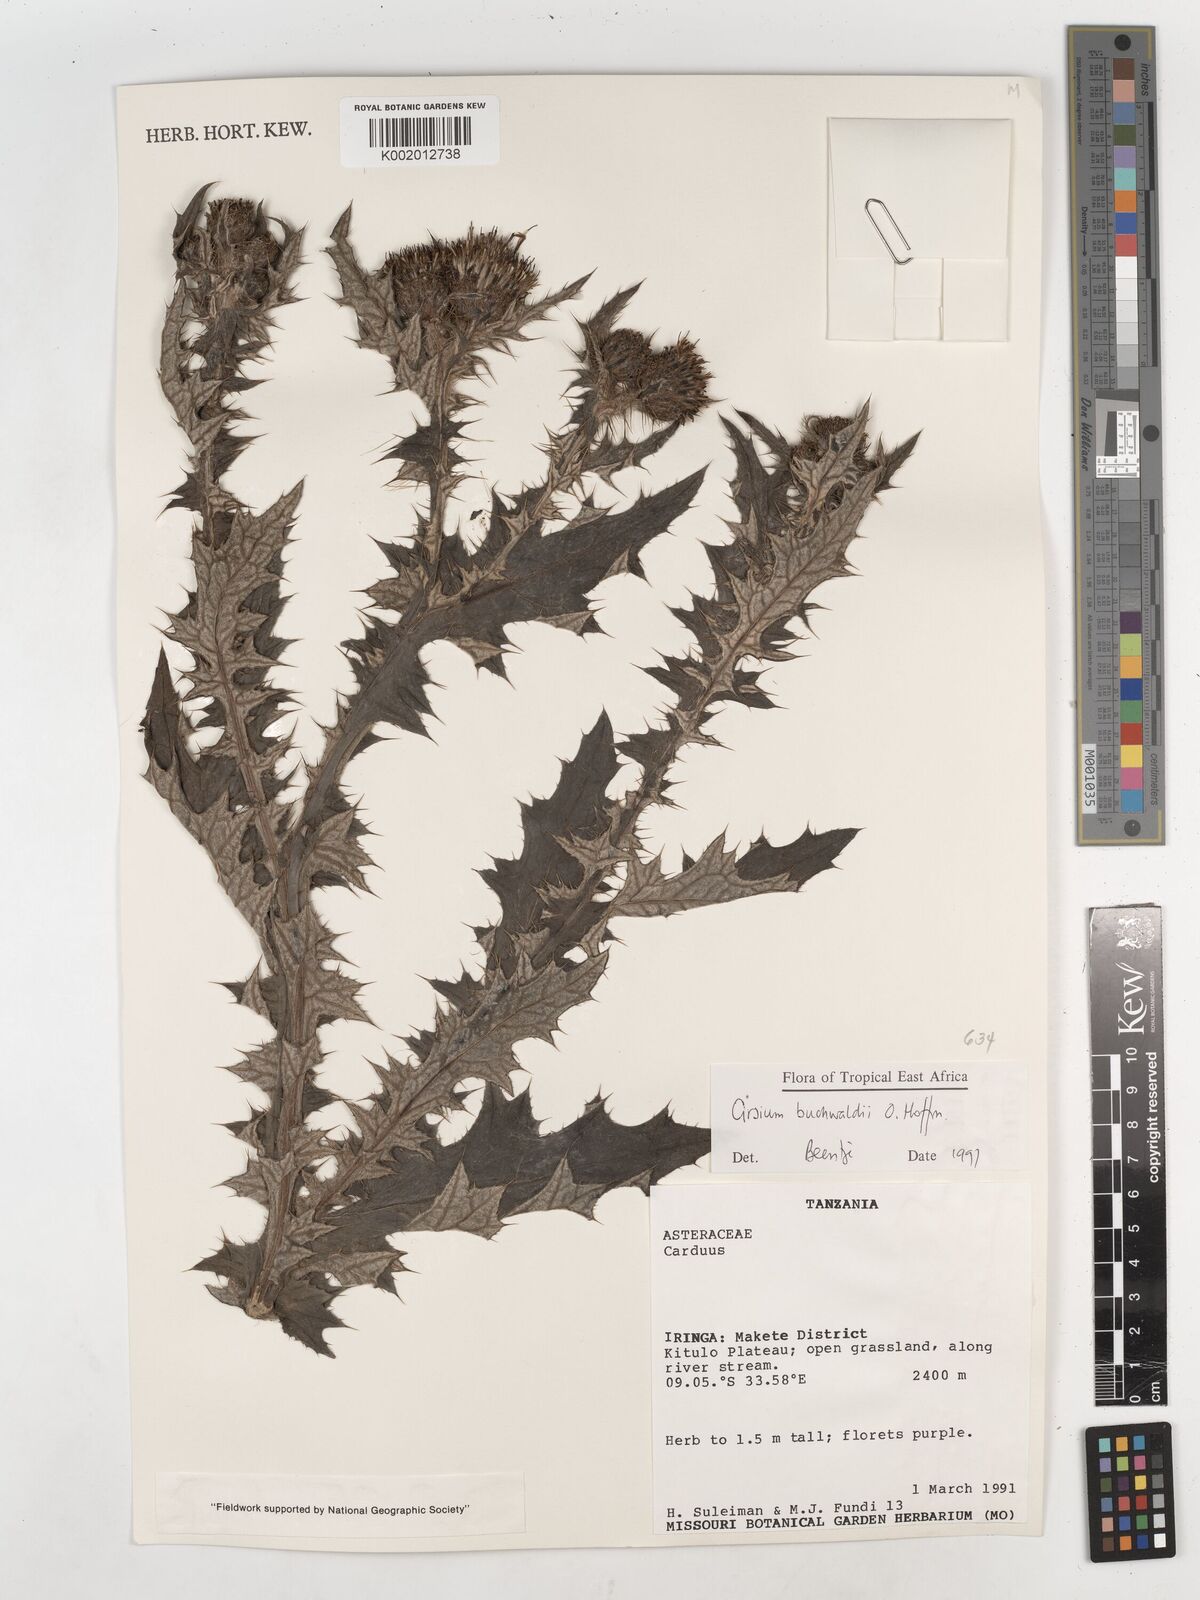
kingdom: Plantae
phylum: Tracheophyta
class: Magnoliopsida
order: Asterales
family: Asteraceae
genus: Cirsium
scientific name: Cirsium buchwaldii
